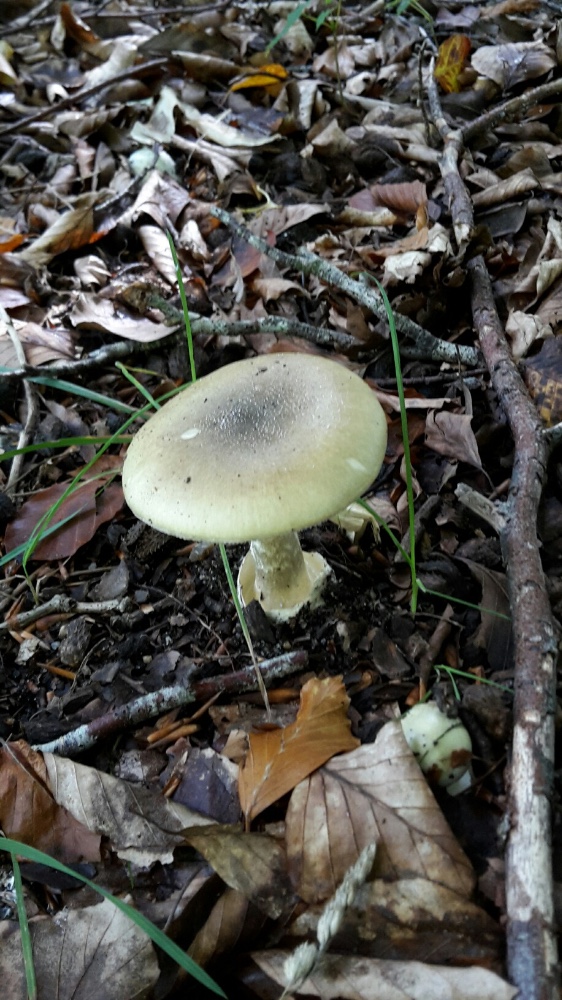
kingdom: Fungi
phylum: Basidiomycota
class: Agaricomycetes
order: Agaricales
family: Amanitaceae
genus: Amanita
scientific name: Amanita phalloides
